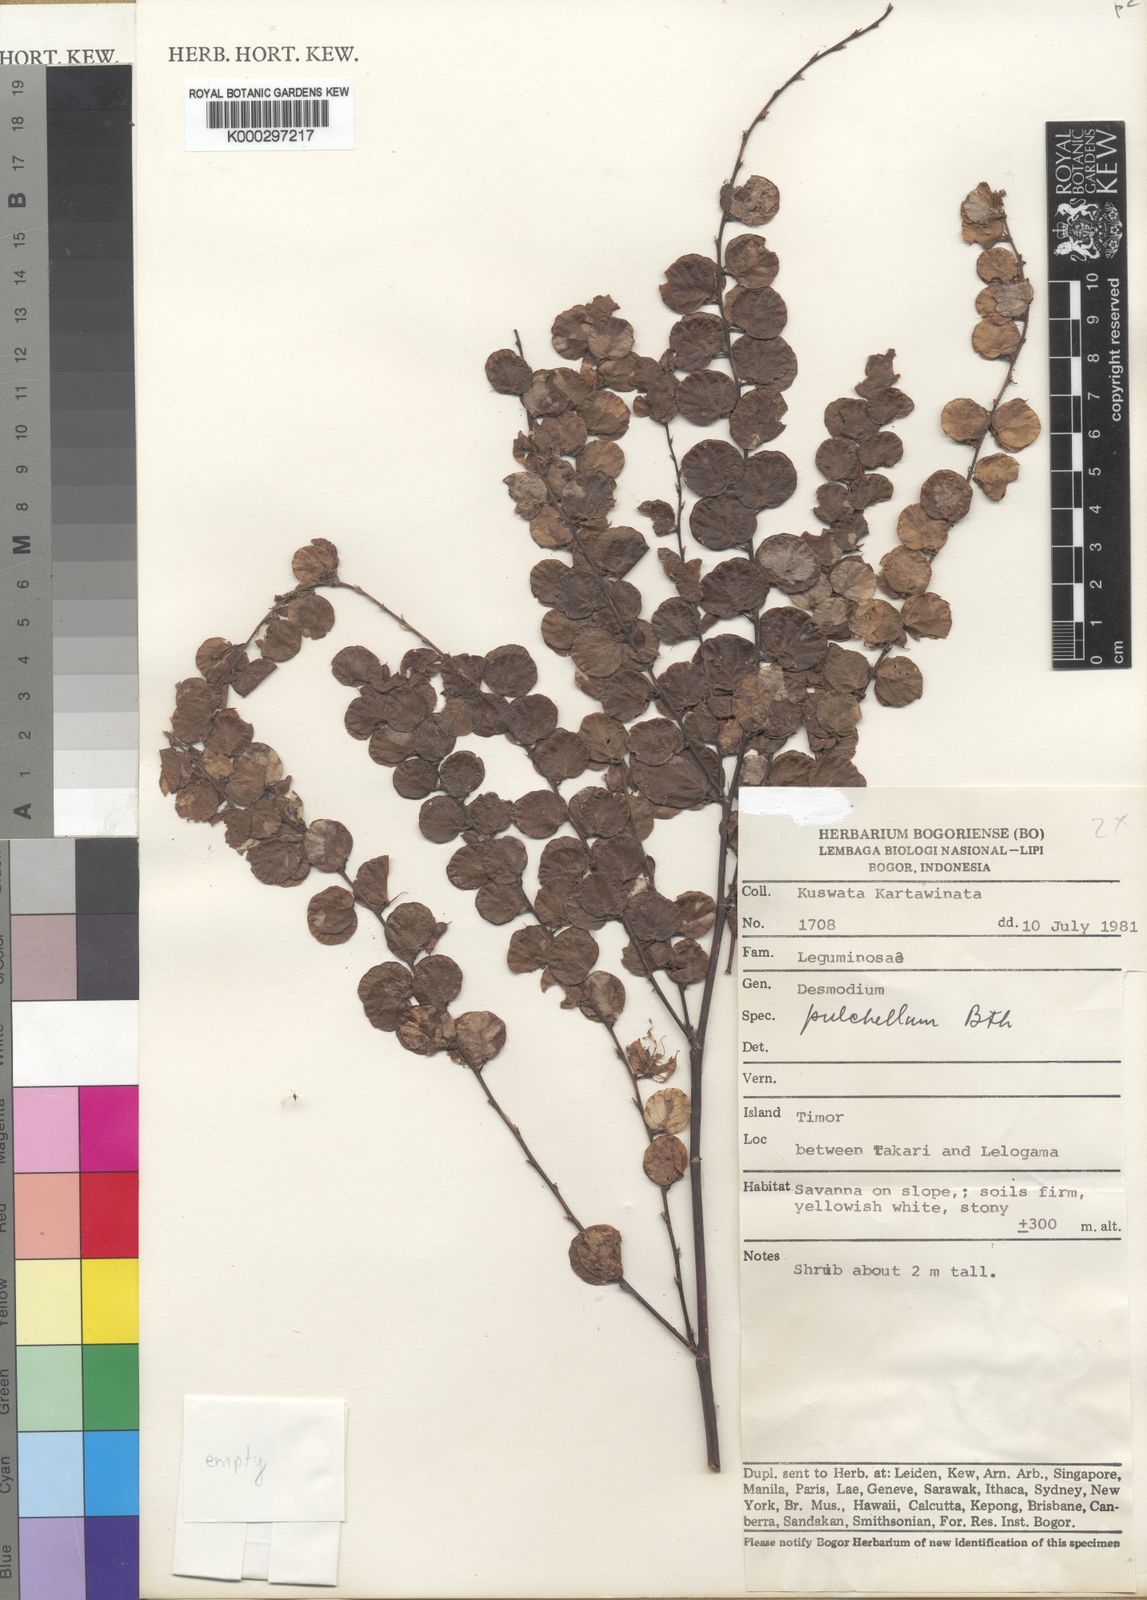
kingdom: Plantae
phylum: Tracheophyta
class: Magnoliopsida
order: Fabales
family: Fabaceae
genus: Phyllodium
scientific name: Phyllodium pulchellum
